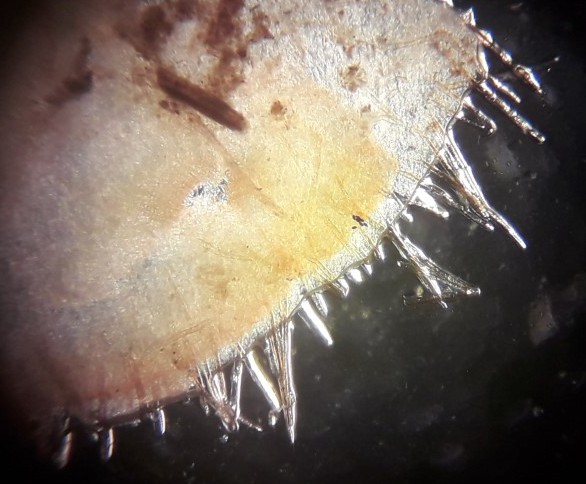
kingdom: Fungi
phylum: Ascomycota
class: Pezizomycetes
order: Pezizales
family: Pyronemataceae
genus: Cheilymenia
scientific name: Cheilymenia fimicola
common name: møg-hårbæger
